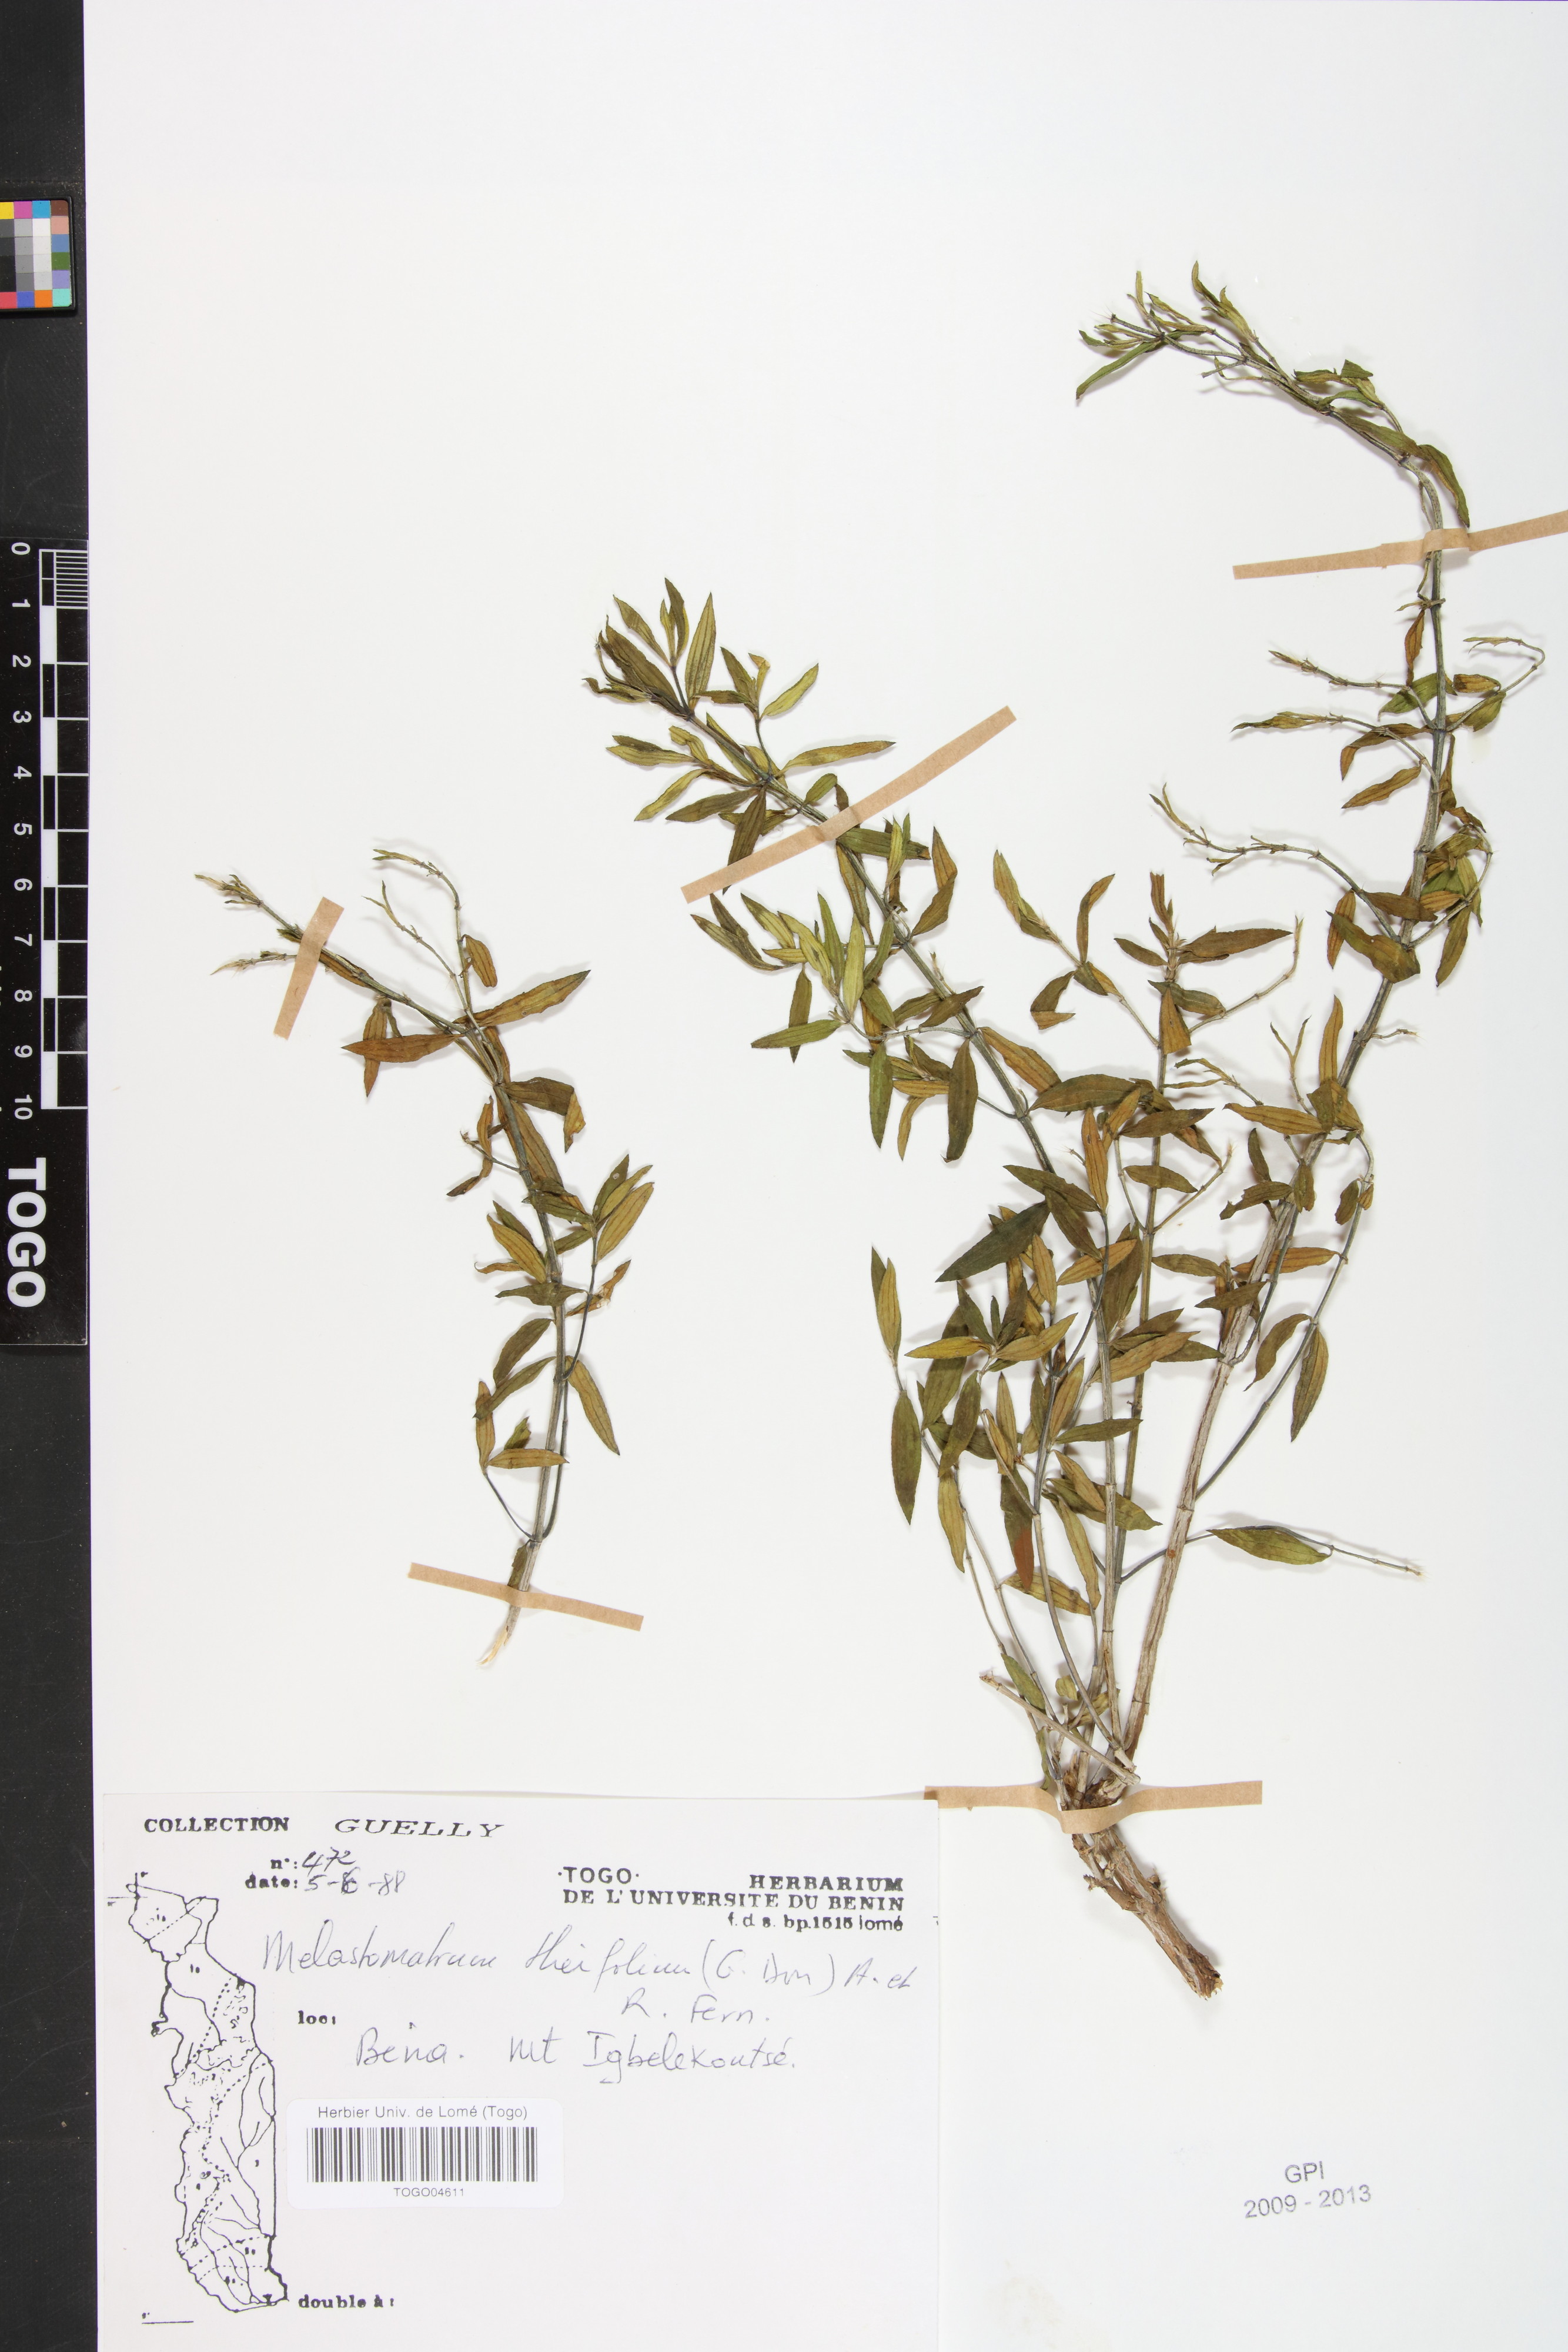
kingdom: Plantae
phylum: Tracheophyta
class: Magnoliopsida
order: Myrtales
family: Melastomataceae
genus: Melastomastrum
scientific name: Melastomastrum theifolium
